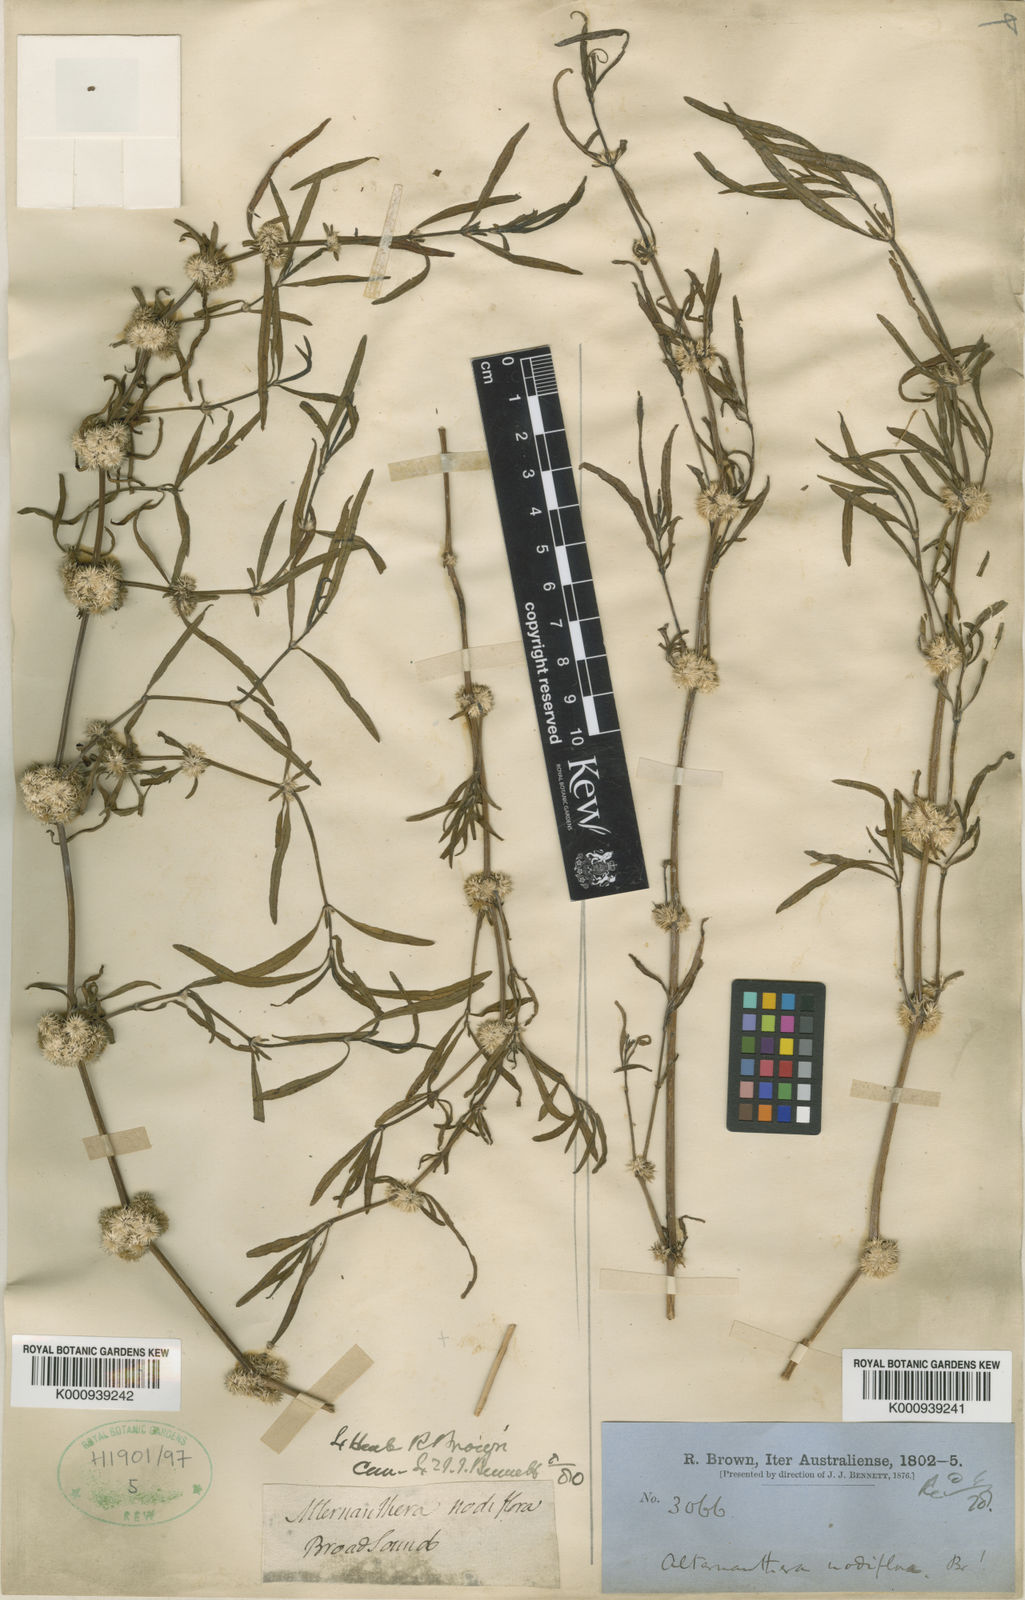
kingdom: Plantae
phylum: Tracheophyta
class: Magnoliopsida
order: Caryophyllales
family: Amaranthaceae
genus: Alternanthera
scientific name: Alternanthera sessilis
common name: Sessile joyweed
